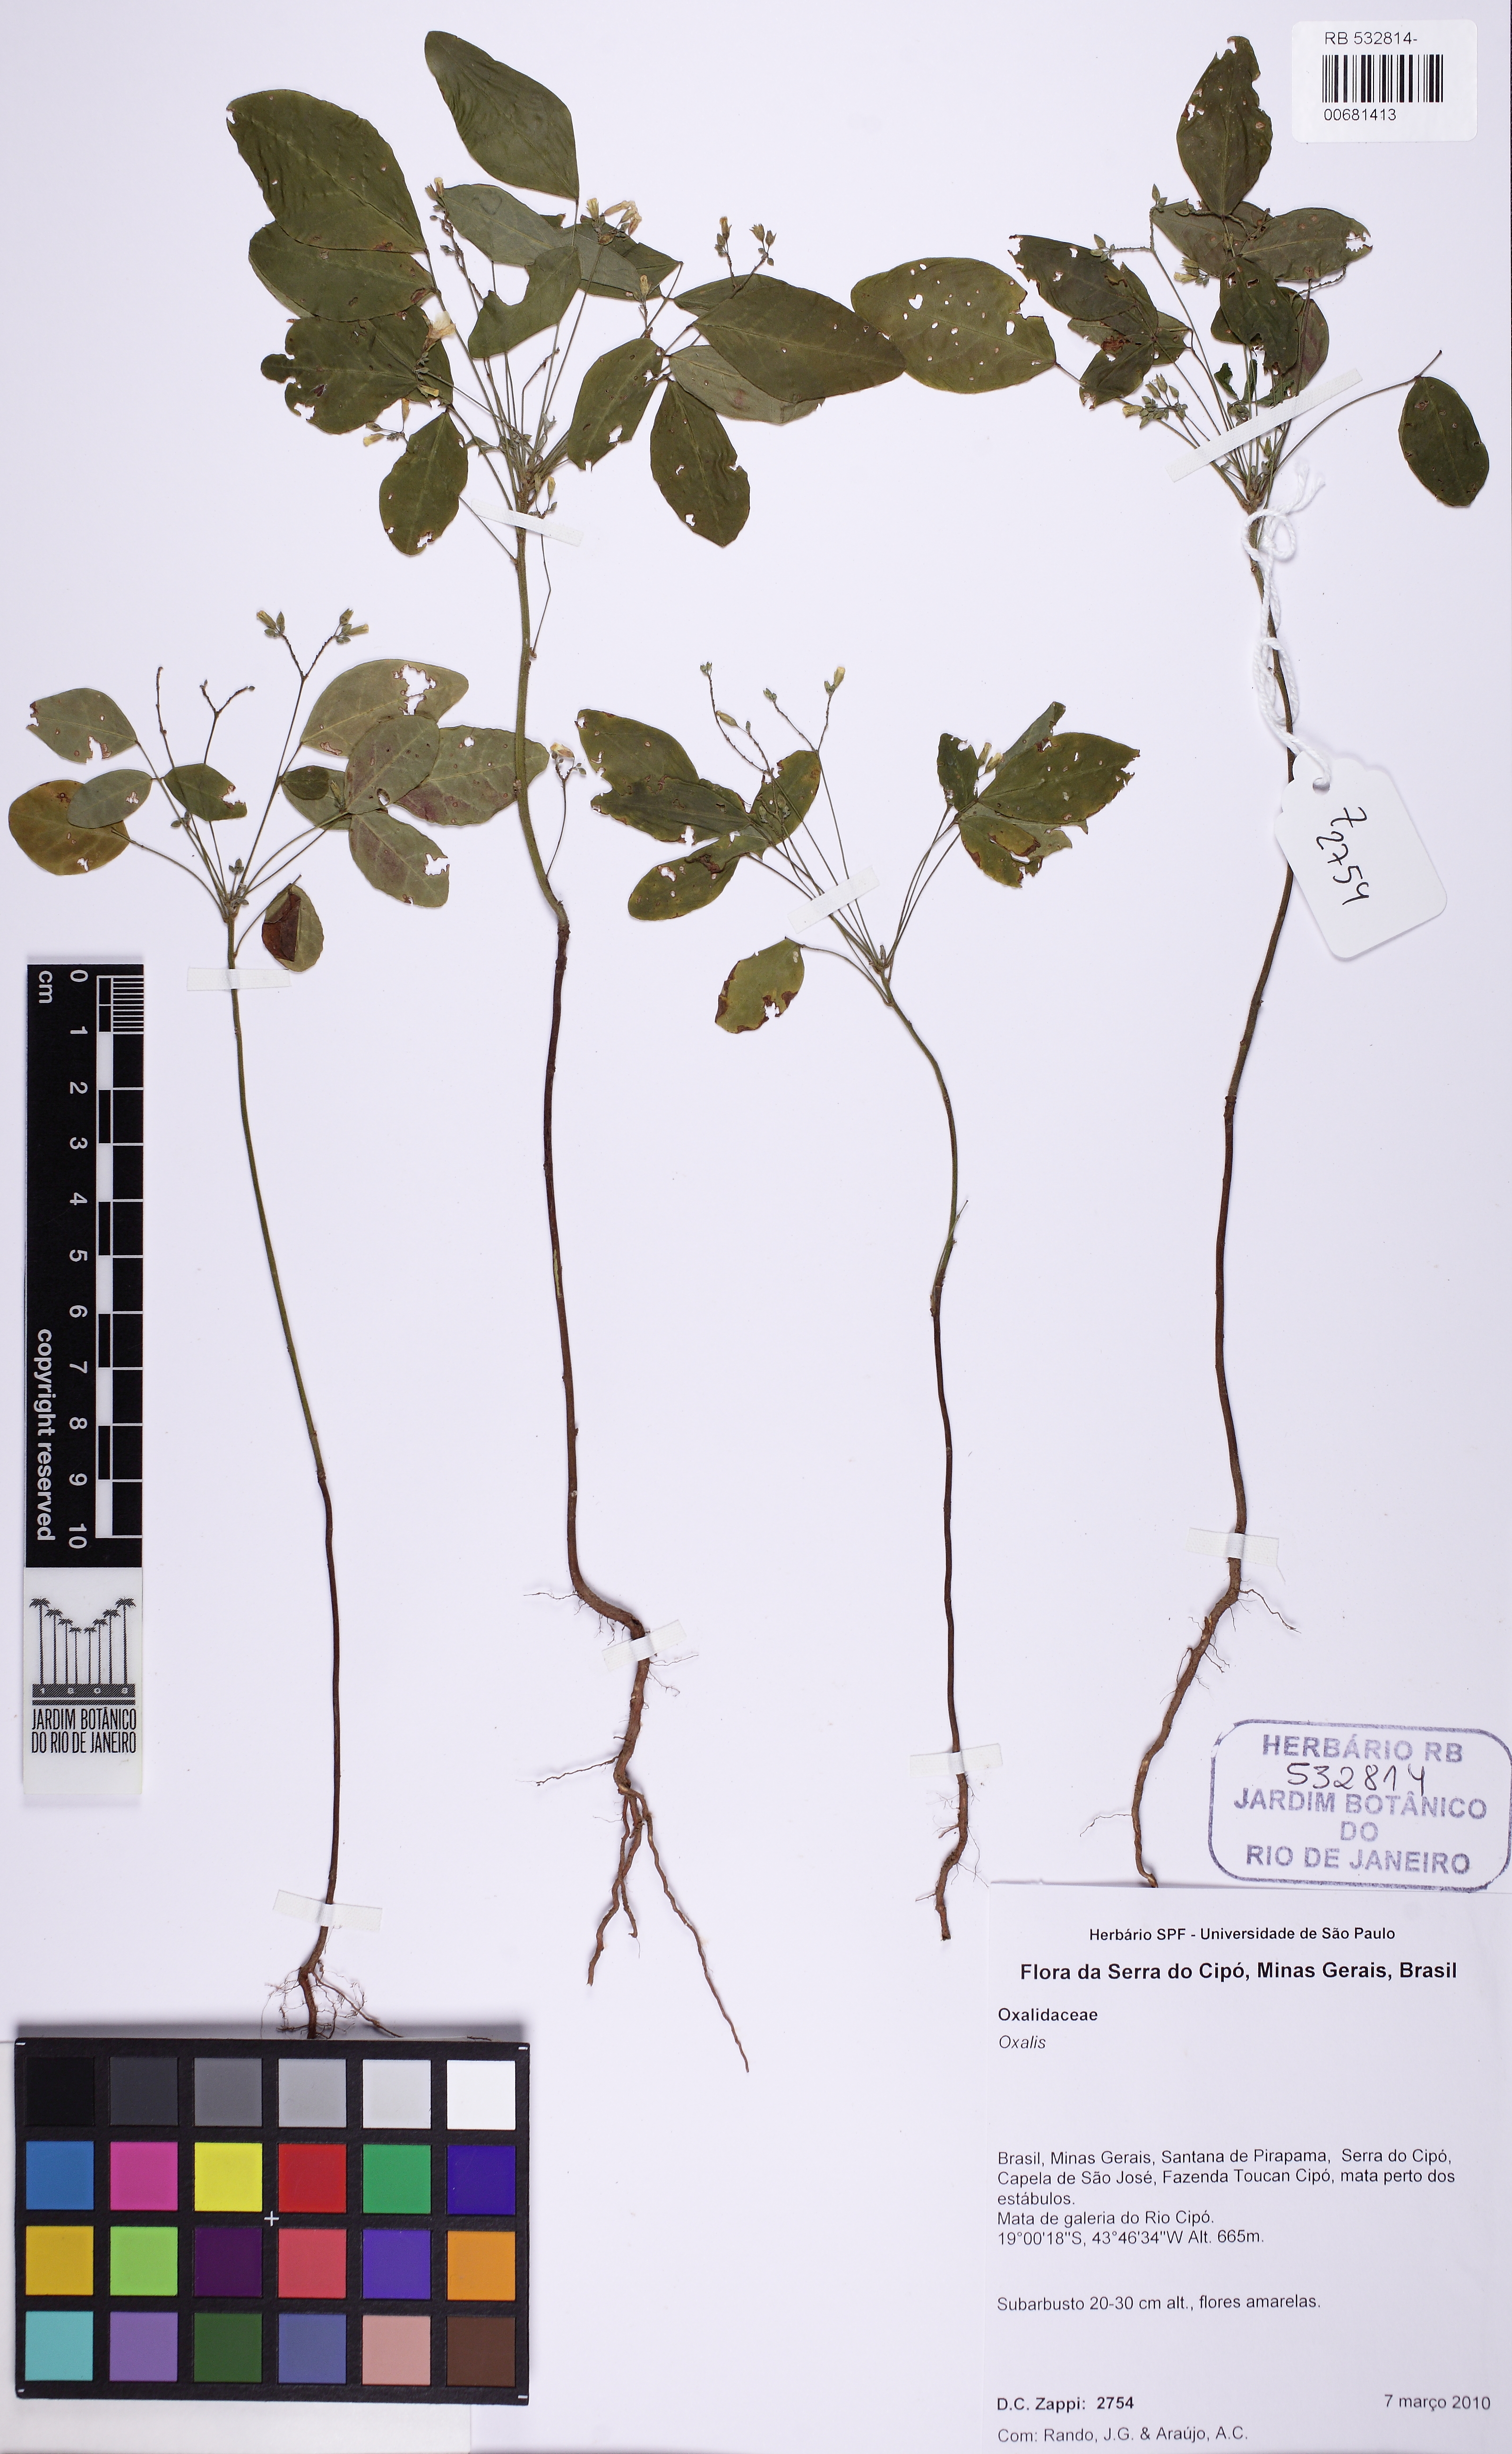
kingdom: Plantae
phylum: Tracheophyta
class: Magnoliopsida
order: Oxalidales
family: Oxalidaceae
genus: Oxalis
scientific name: Oxalis
